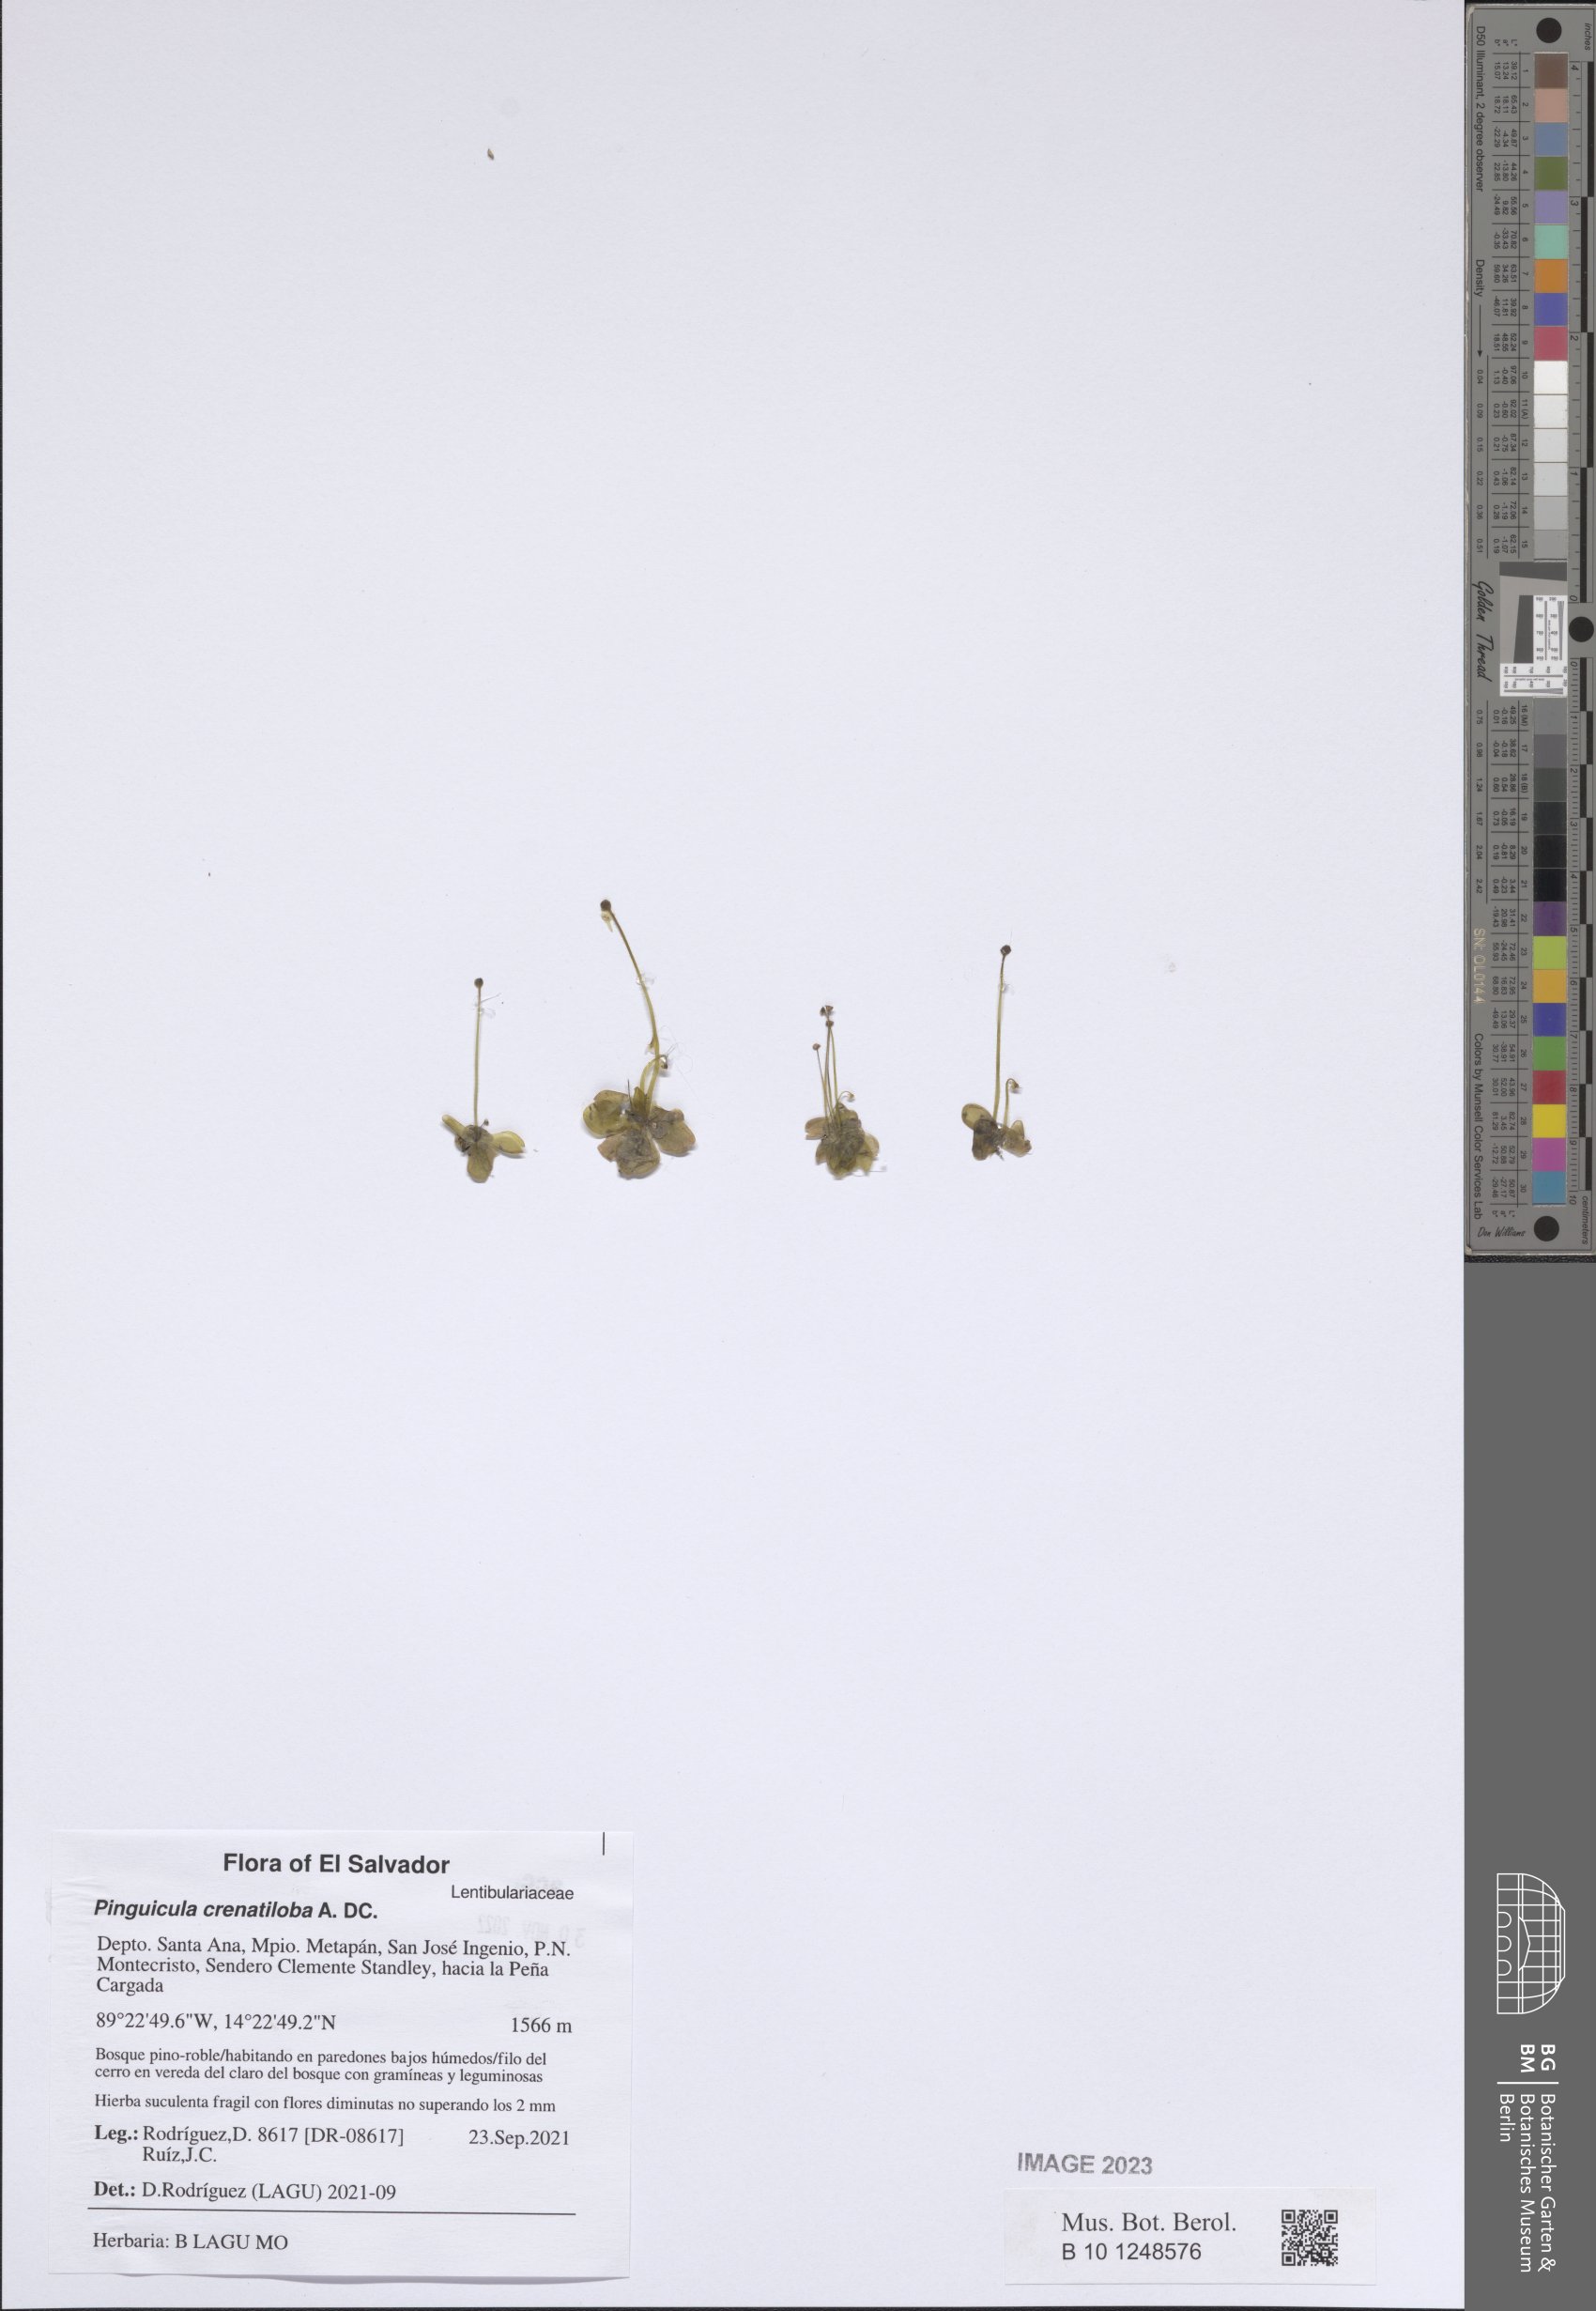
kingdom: Plantae
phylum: Tracheophyta
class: Magnoliopsida
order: Lamiales
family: Lentibulariaceae
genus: Pinguicula
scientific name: Pinguicula crenatiloba
